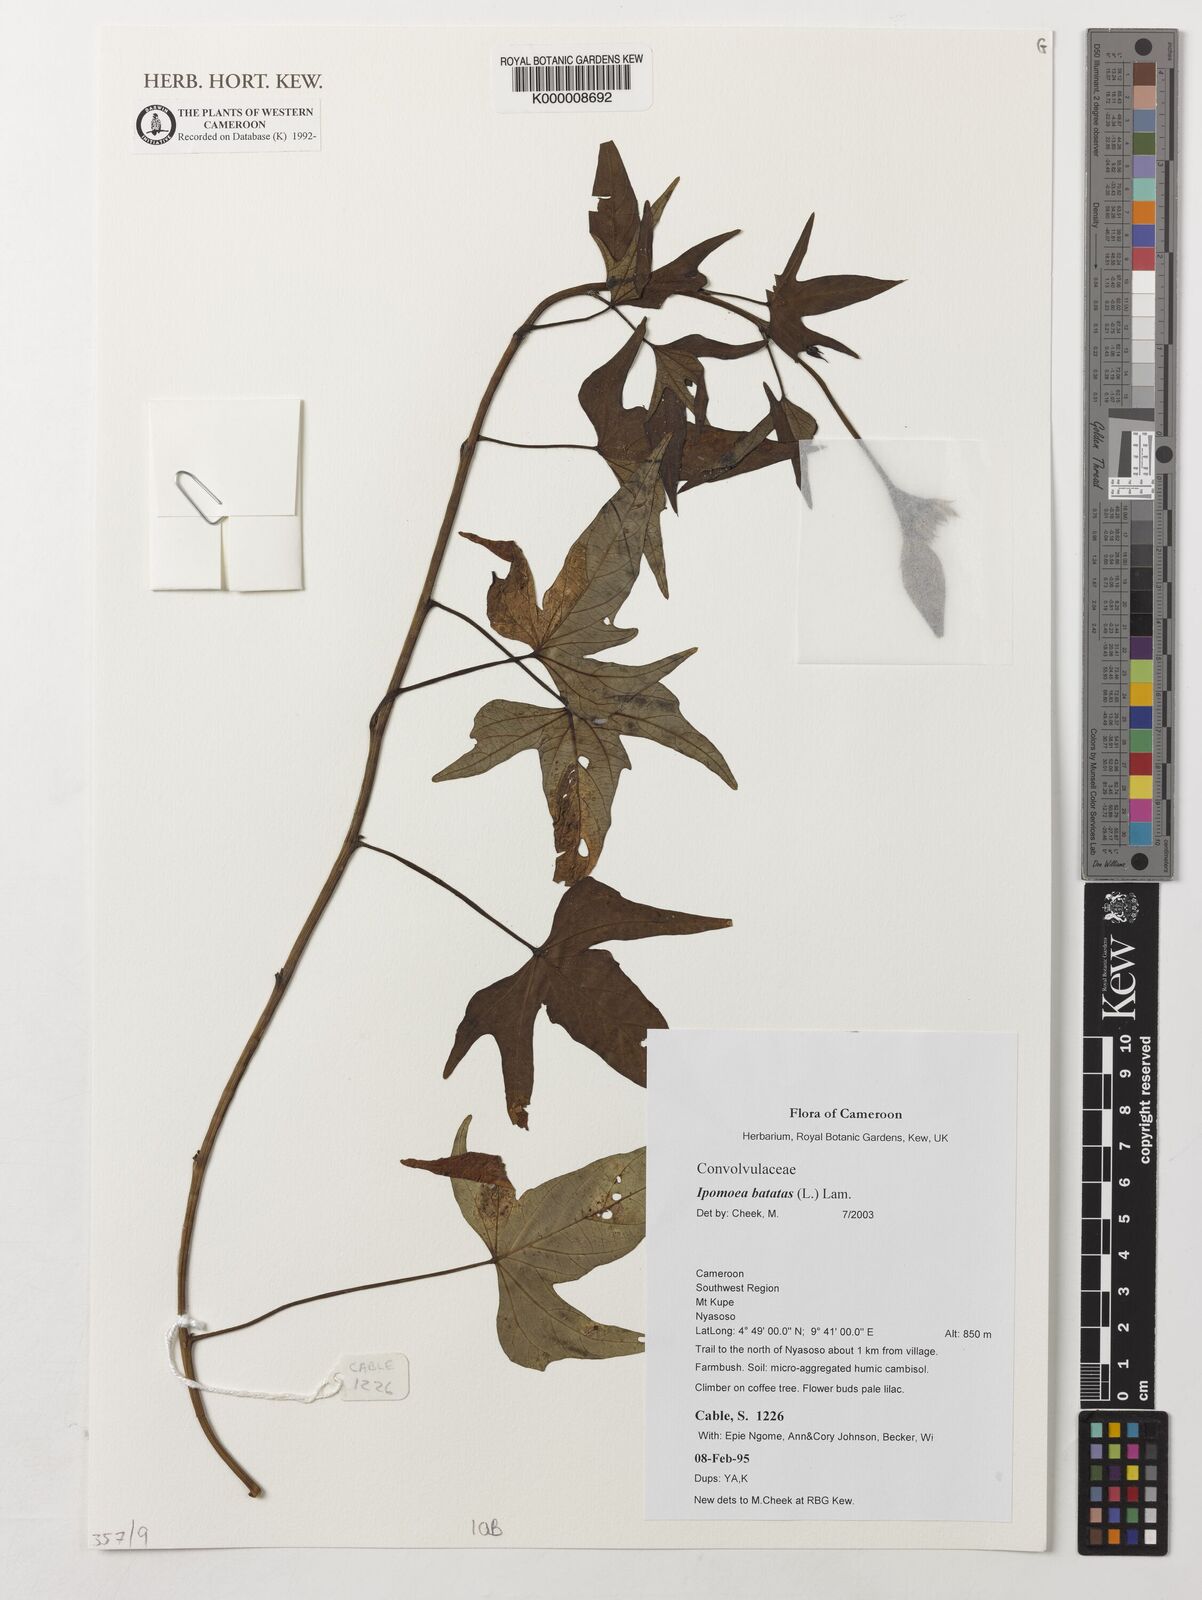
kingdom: Plantae
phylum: Tracheophyta
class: Magnoliopsida
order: Solanales
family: Convolvulaceae
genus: Ipomoea
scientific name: Ipomoea batatas
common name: Sweet-potato
